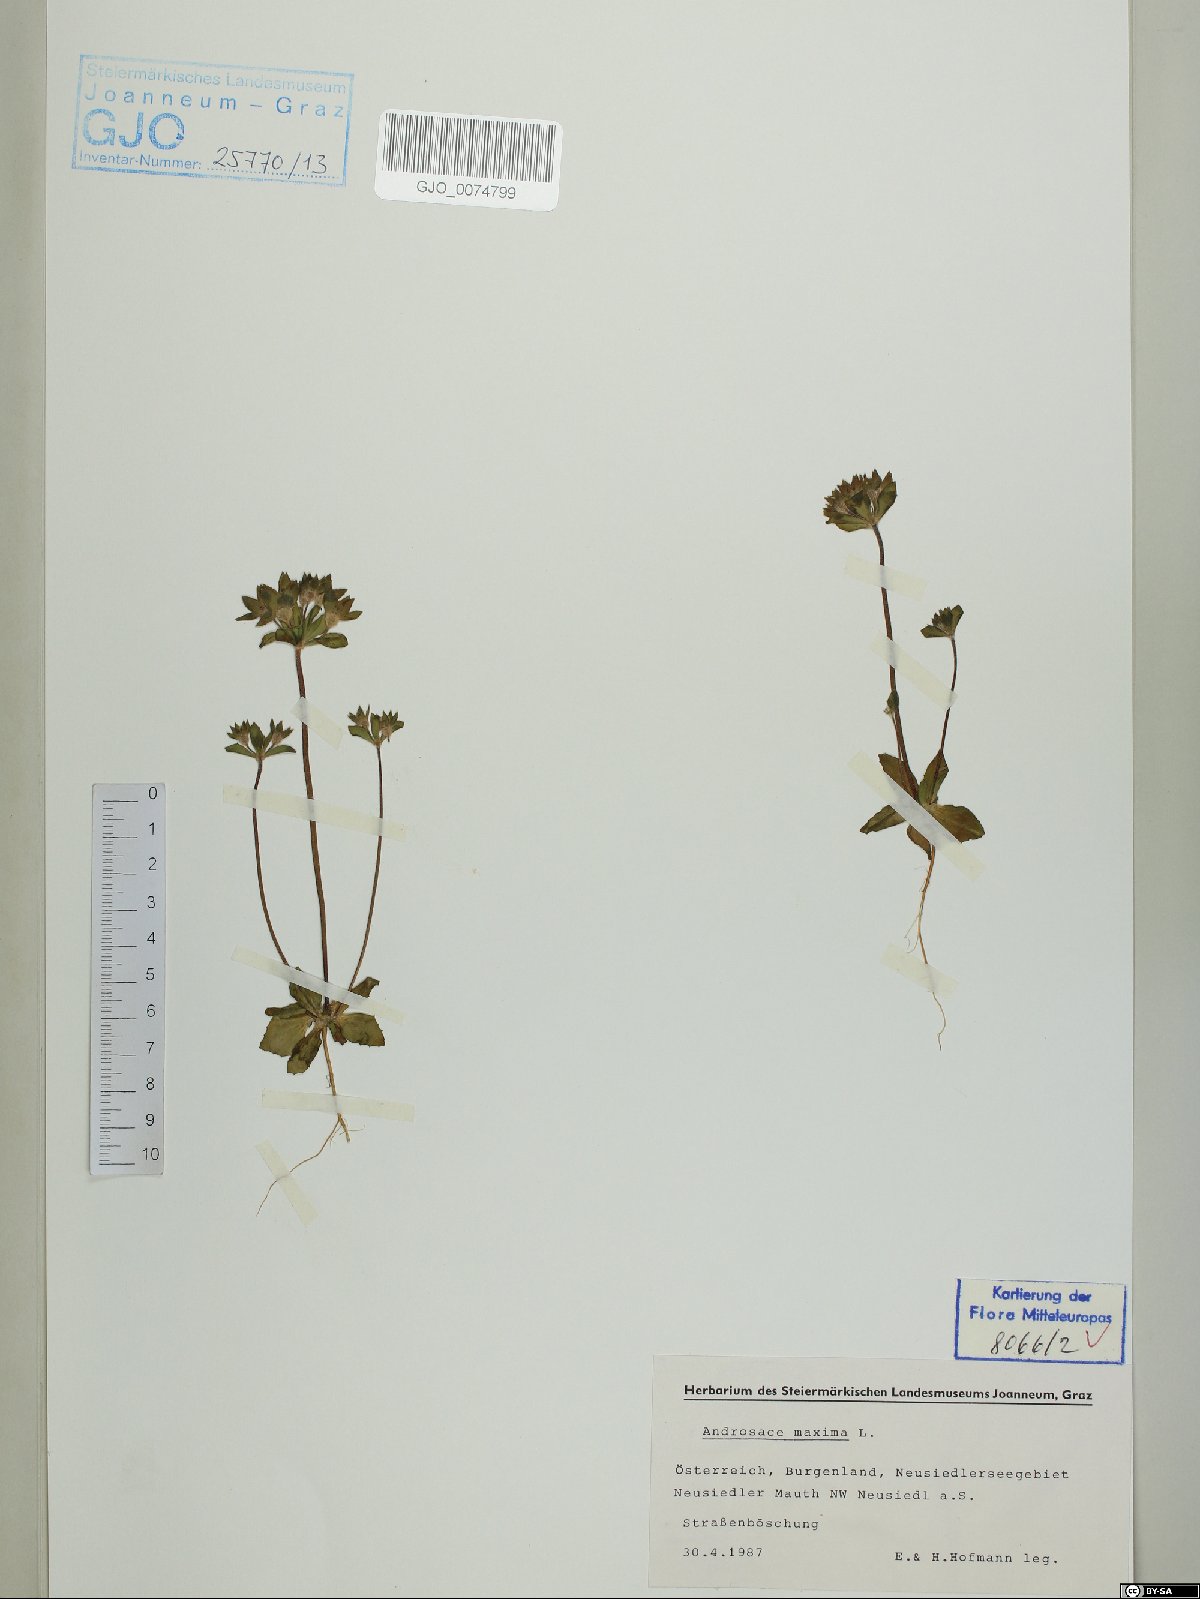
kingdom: Plantae
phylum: Tracheophyta
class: Magnoliopsida
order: Ericales
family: Primulaceae
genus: Androsace
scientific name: Androsace maxima
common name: Annual androsace
